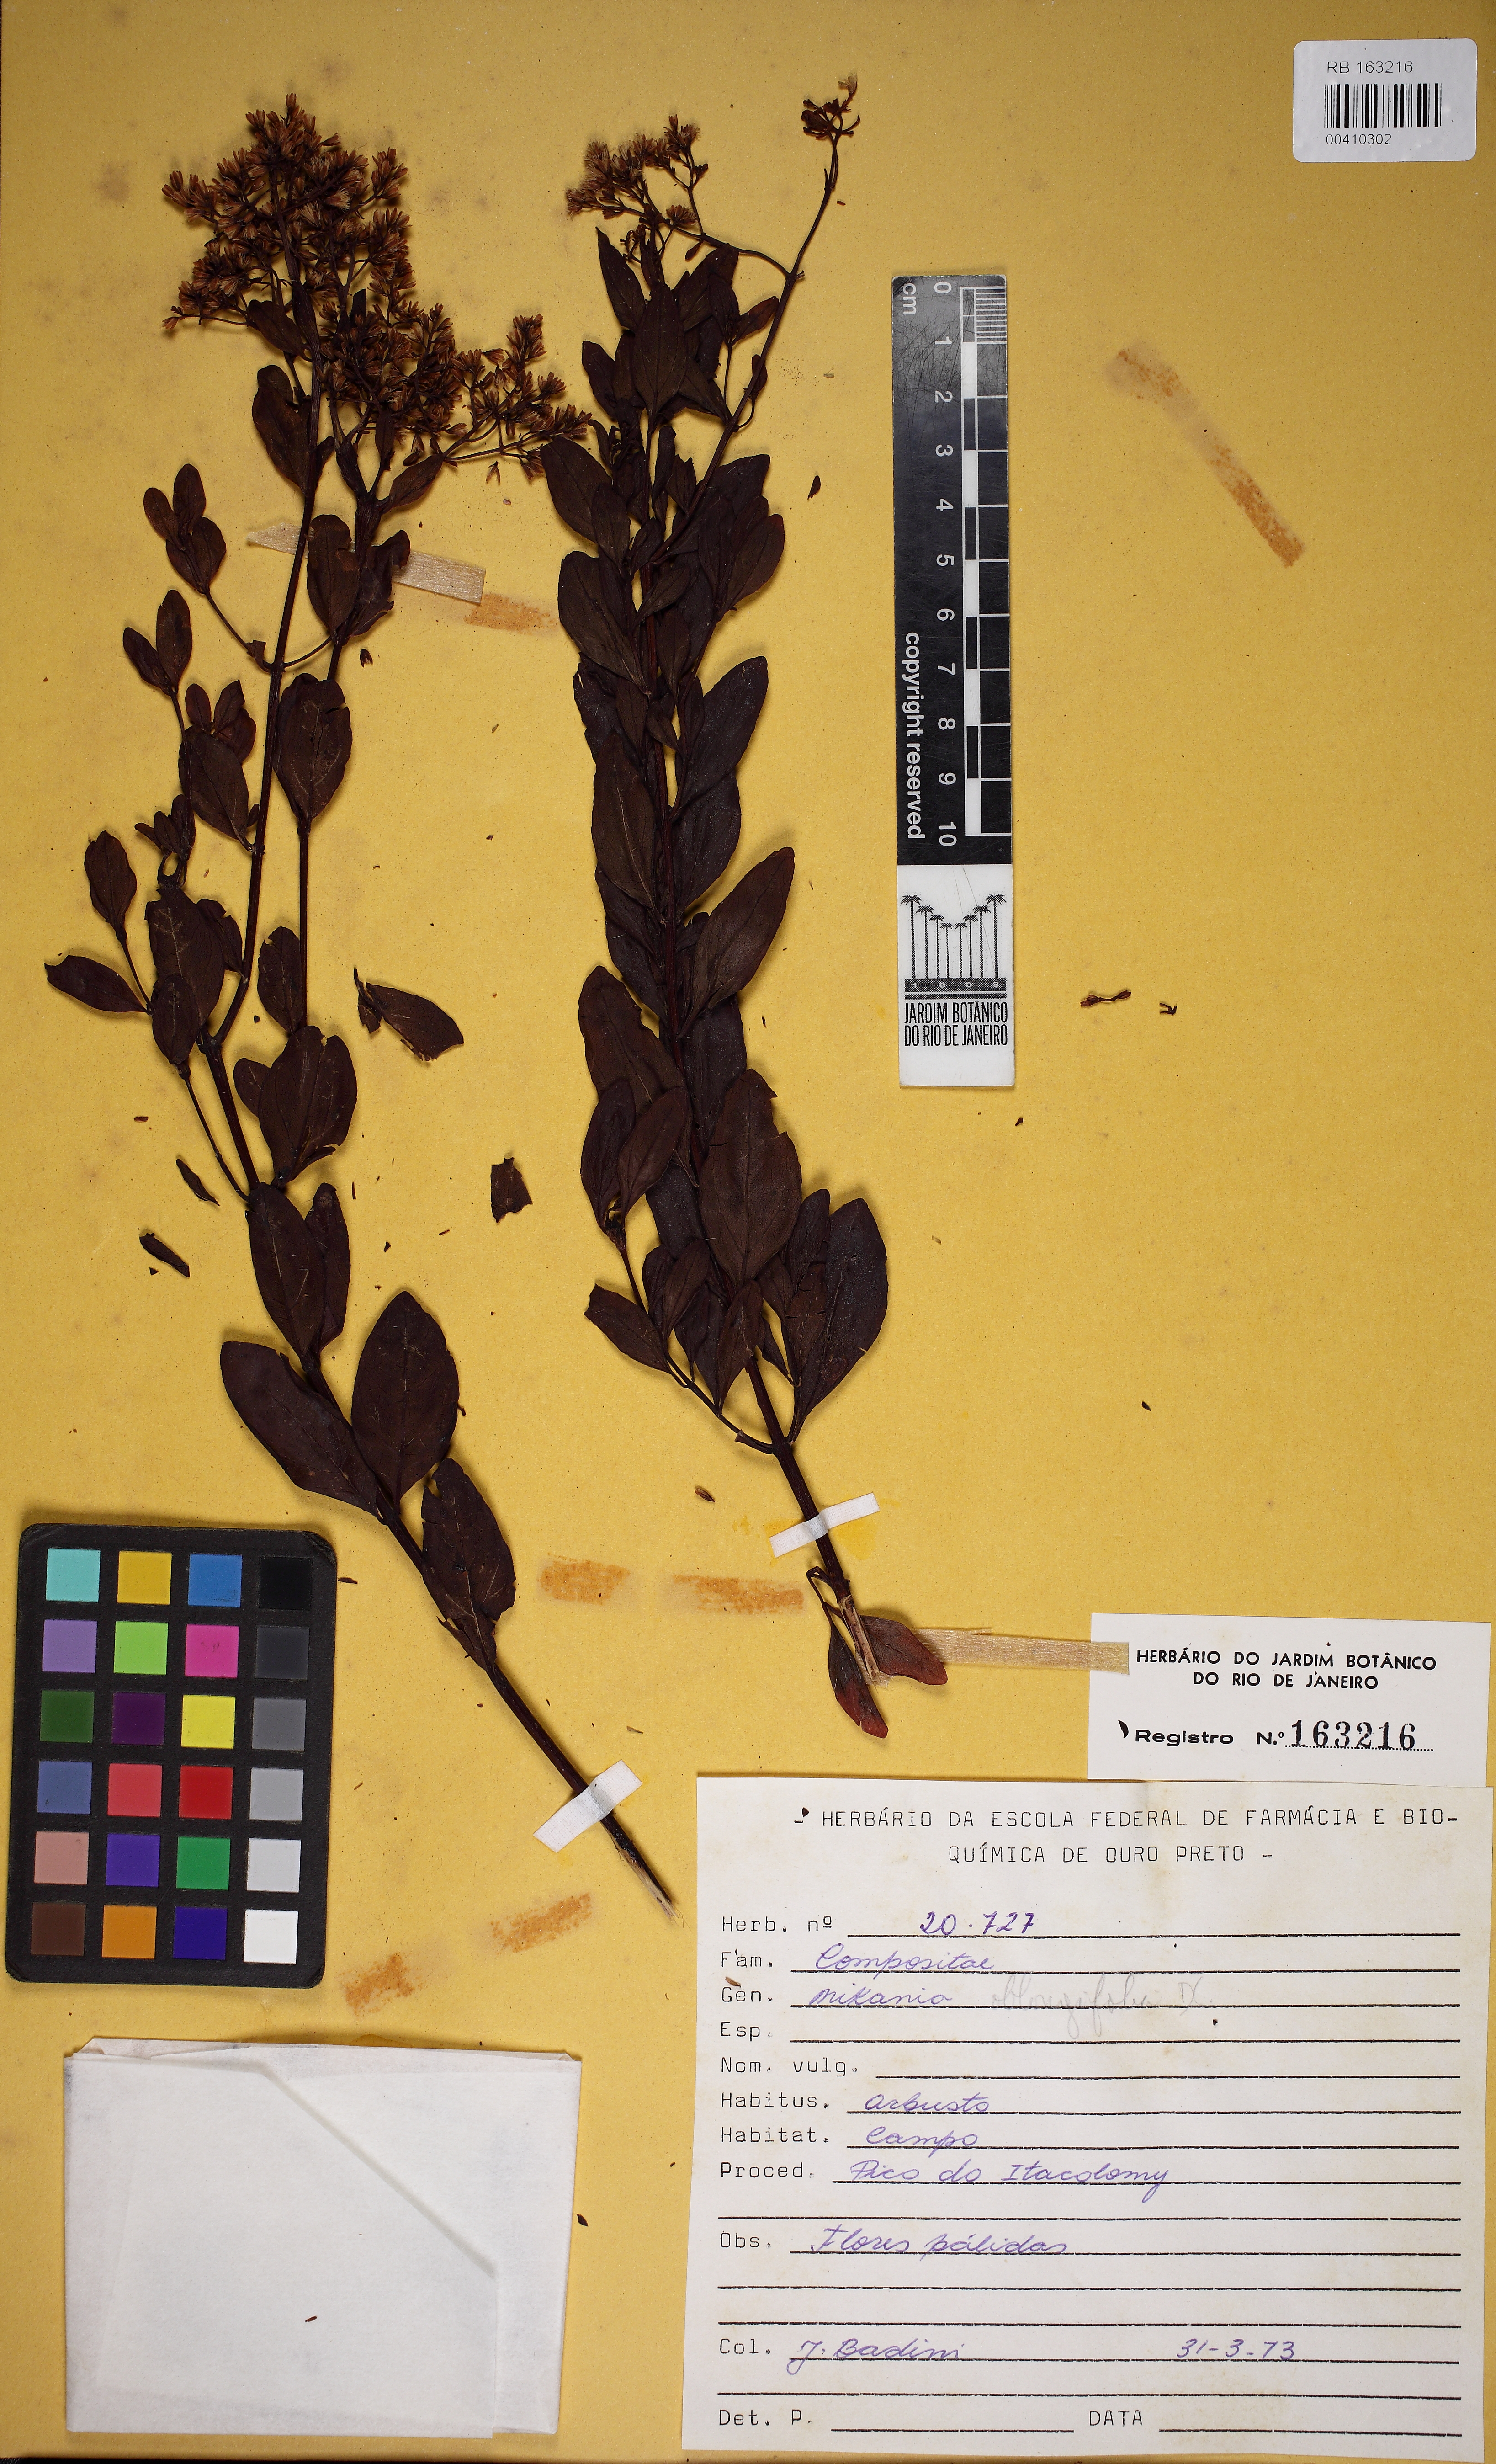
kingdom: Plantae
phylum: Tracheophyta
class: Magnoliopsida
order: Asterales
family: Asteraceae
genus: Mikania
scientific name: Mikania obtusata
